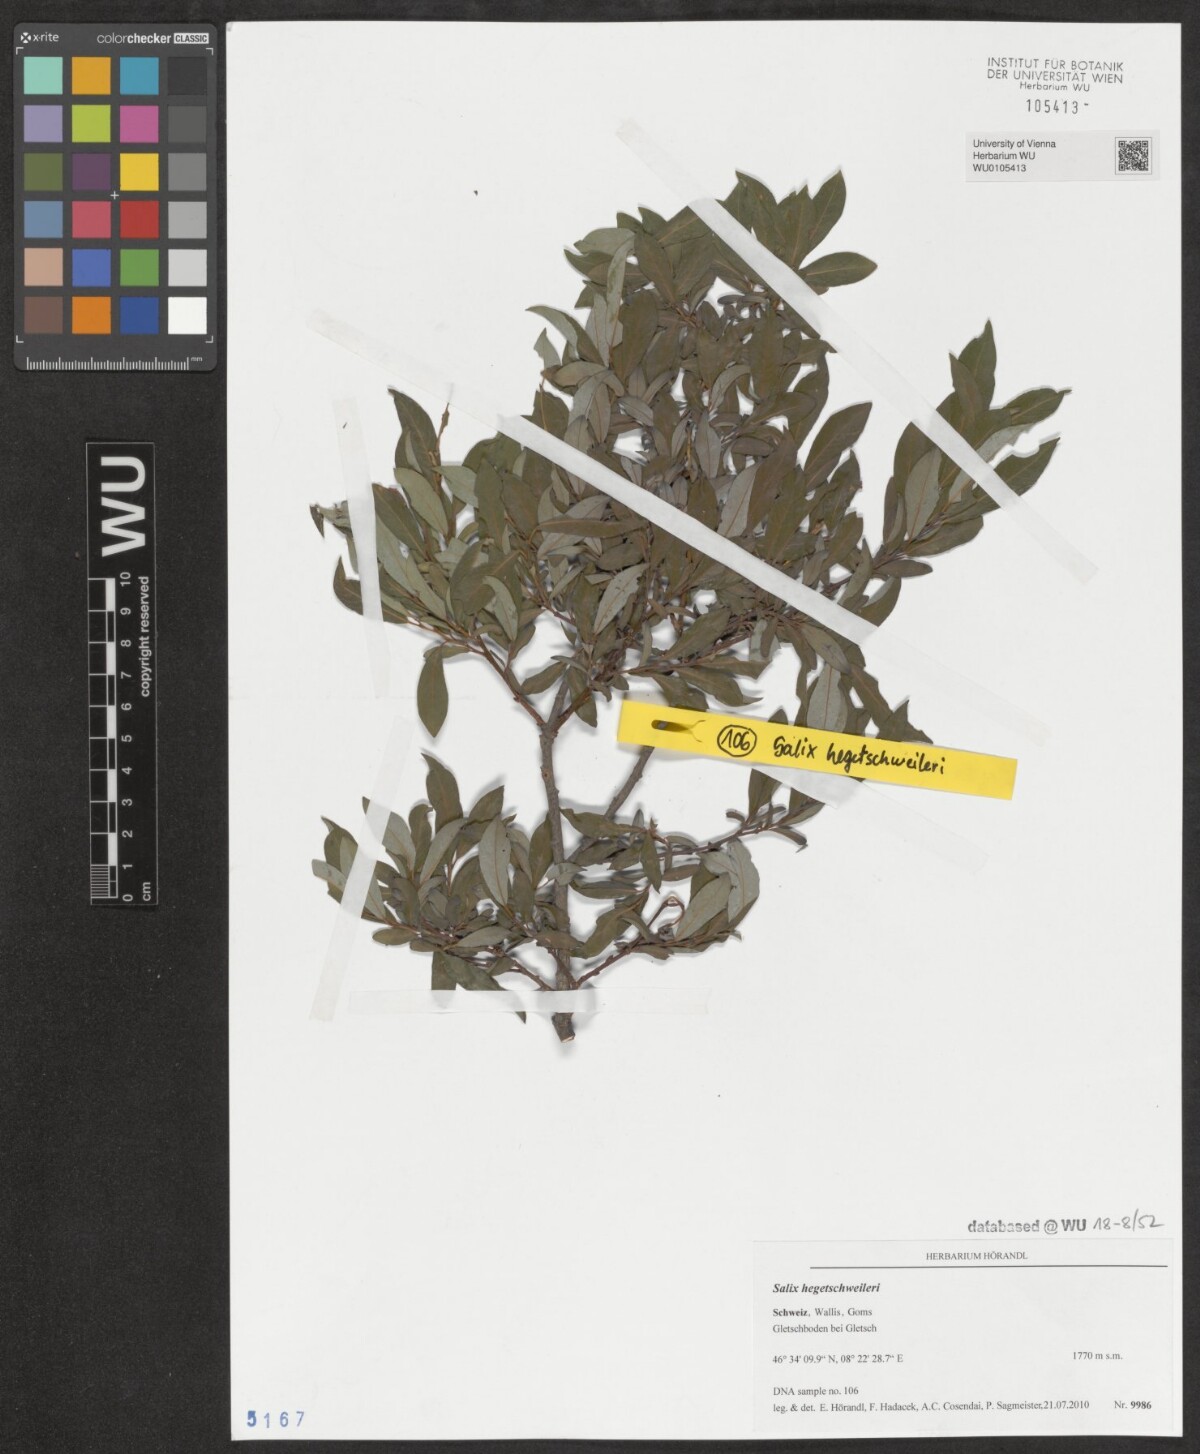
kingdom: Plantae
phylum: Tracheophyta
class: Magnoliopsida
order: Malpighiales
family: Salicaceae
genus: Salix
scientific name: Salix hegetschweileri
